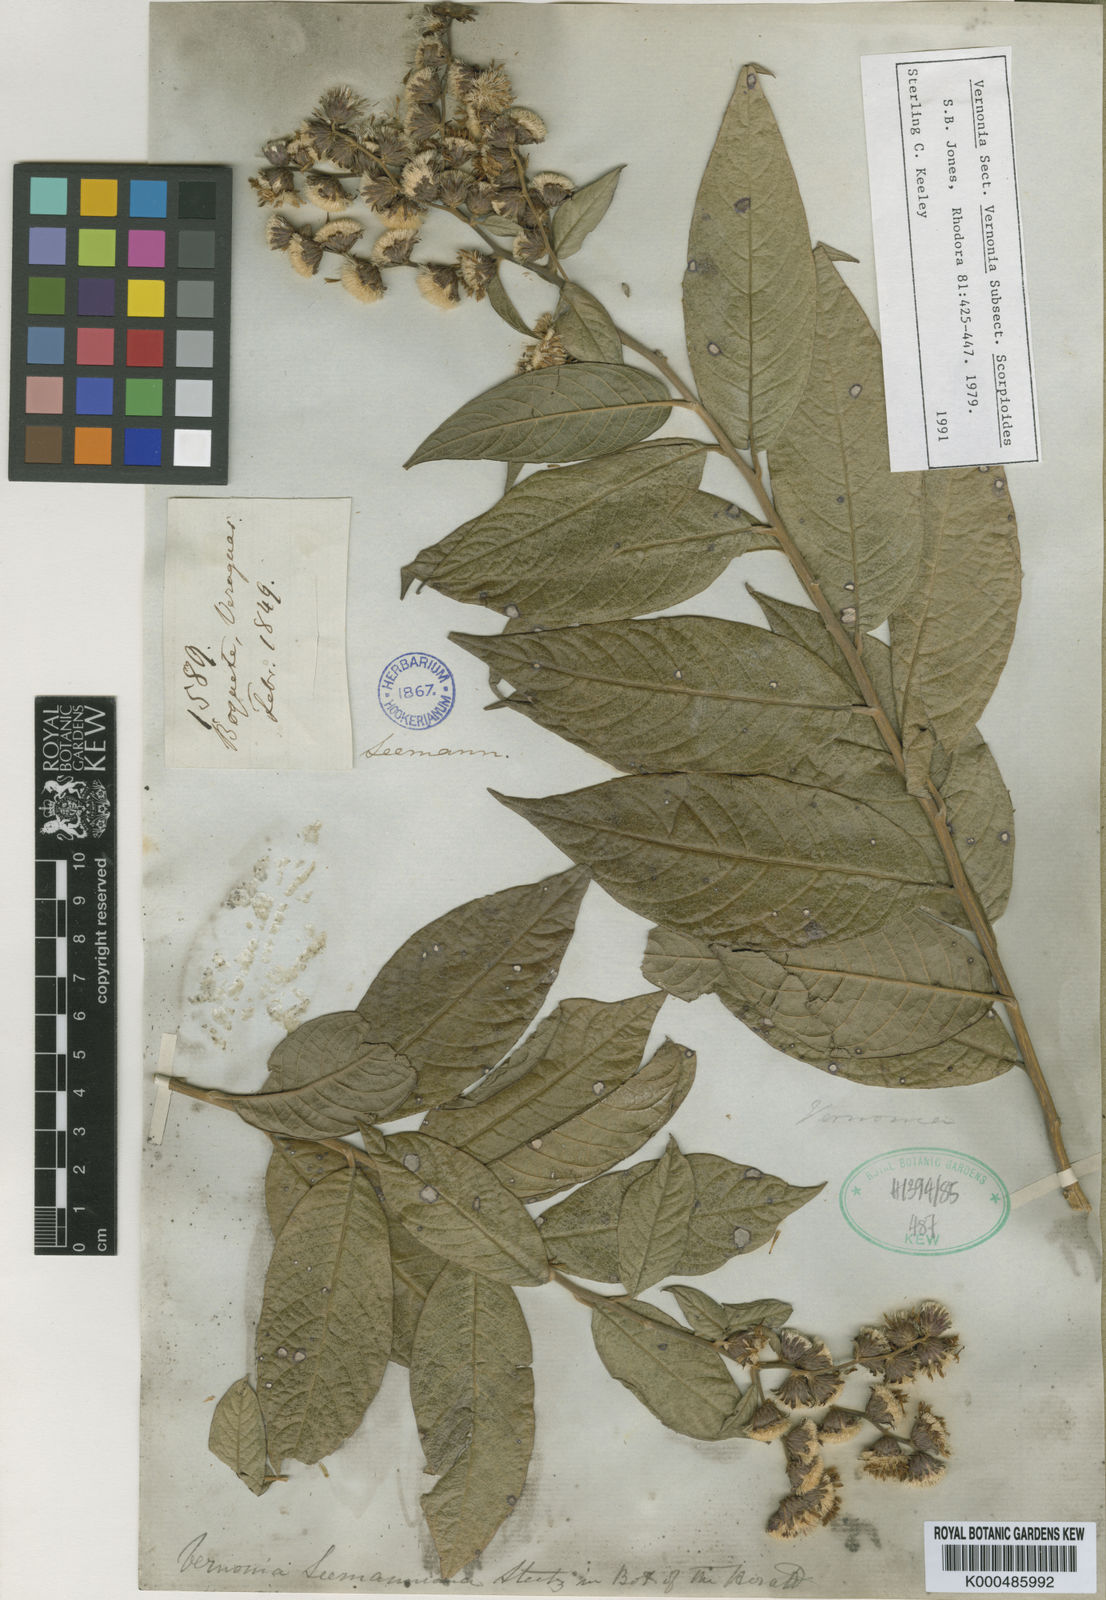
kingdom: Plantae
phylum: Tracheophyta
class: Magnoliopsida
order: Asterales
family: Asteraceae
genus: Lepidaploa
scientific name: Lepidaploa tortuosa
